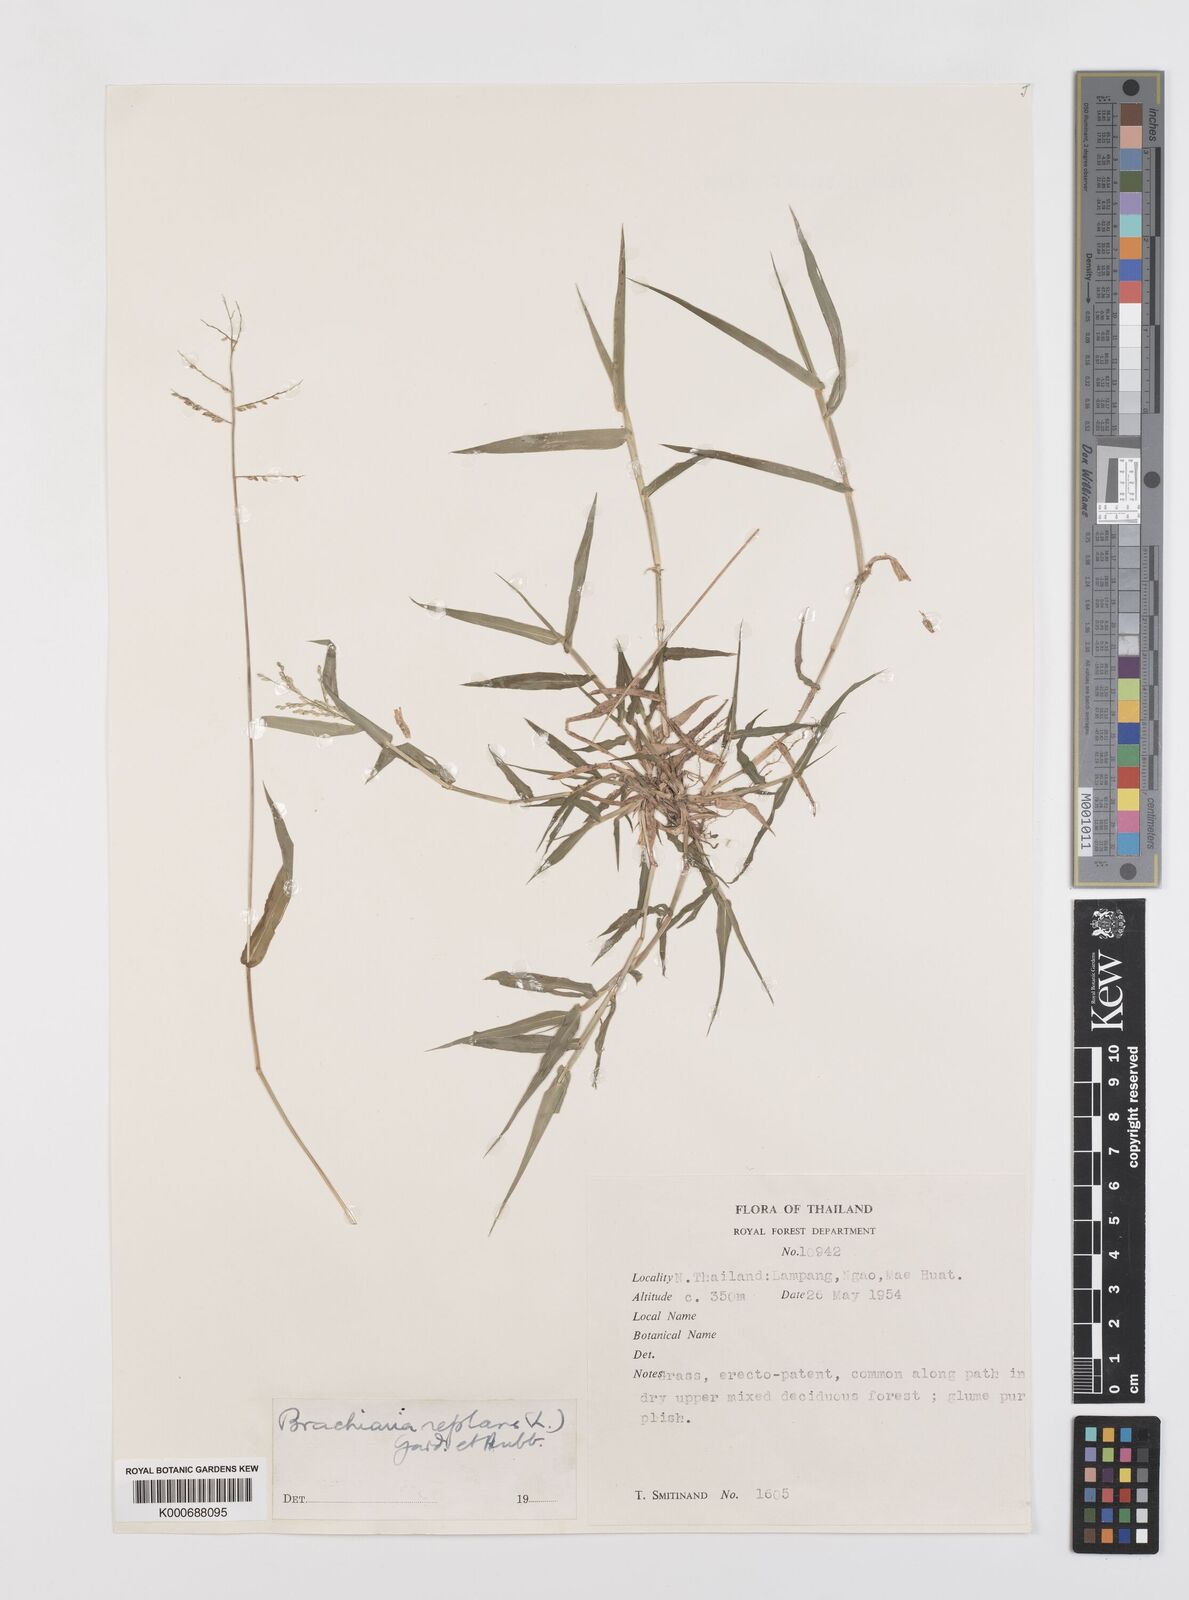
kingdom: Plantae
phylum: Tracheophyta
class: Liliopsida
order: Poales
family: Poaceae
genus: Urochloa
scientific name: Urochloa reptans
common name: Sprawling signalgrass
